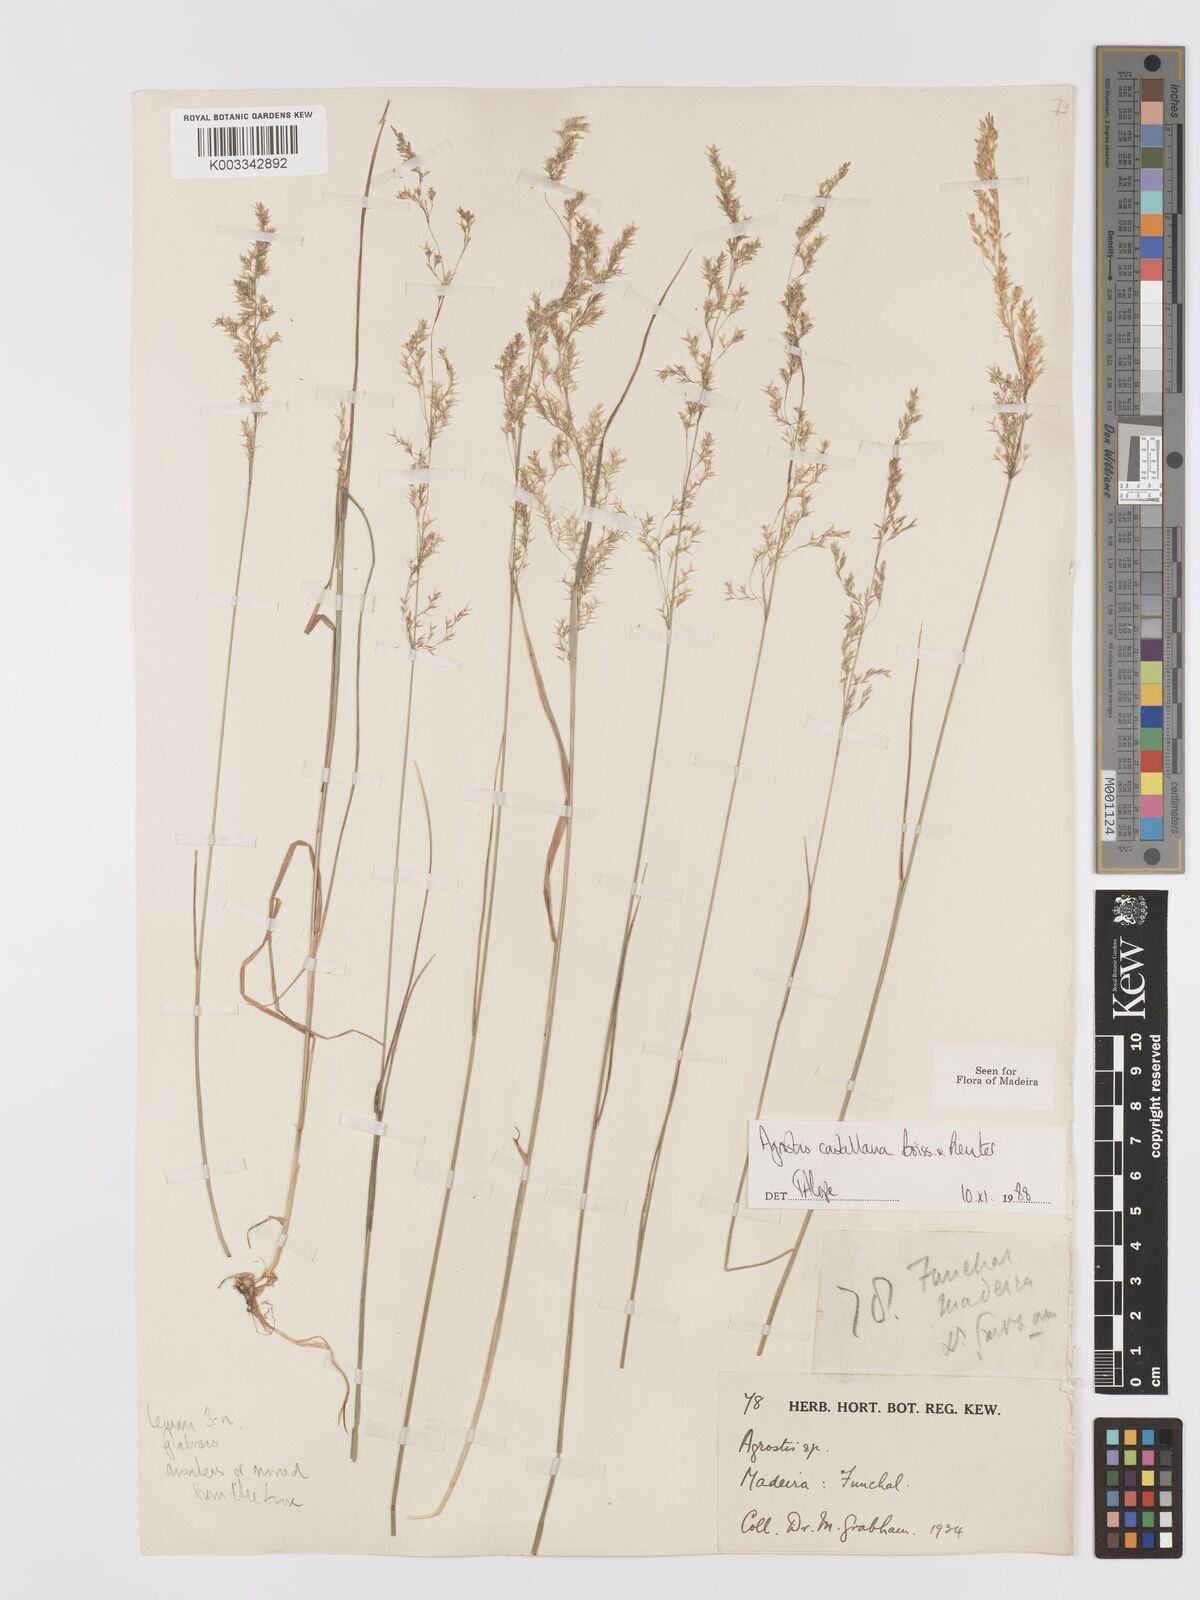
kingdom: Plantae
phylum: Tracheophyta
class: Liliopsida
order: Poales
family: Poaceae
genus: Agrostis
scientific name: Agrostis castellana
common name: Highland bent
